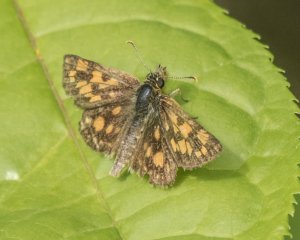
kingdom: Animalia
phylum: Arthropoda
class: Insecta
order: Lepidoptera
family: Hesperiidae
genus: Carterocephalus
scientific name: Carterocephalus palaemon
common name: Chequered Skipper
